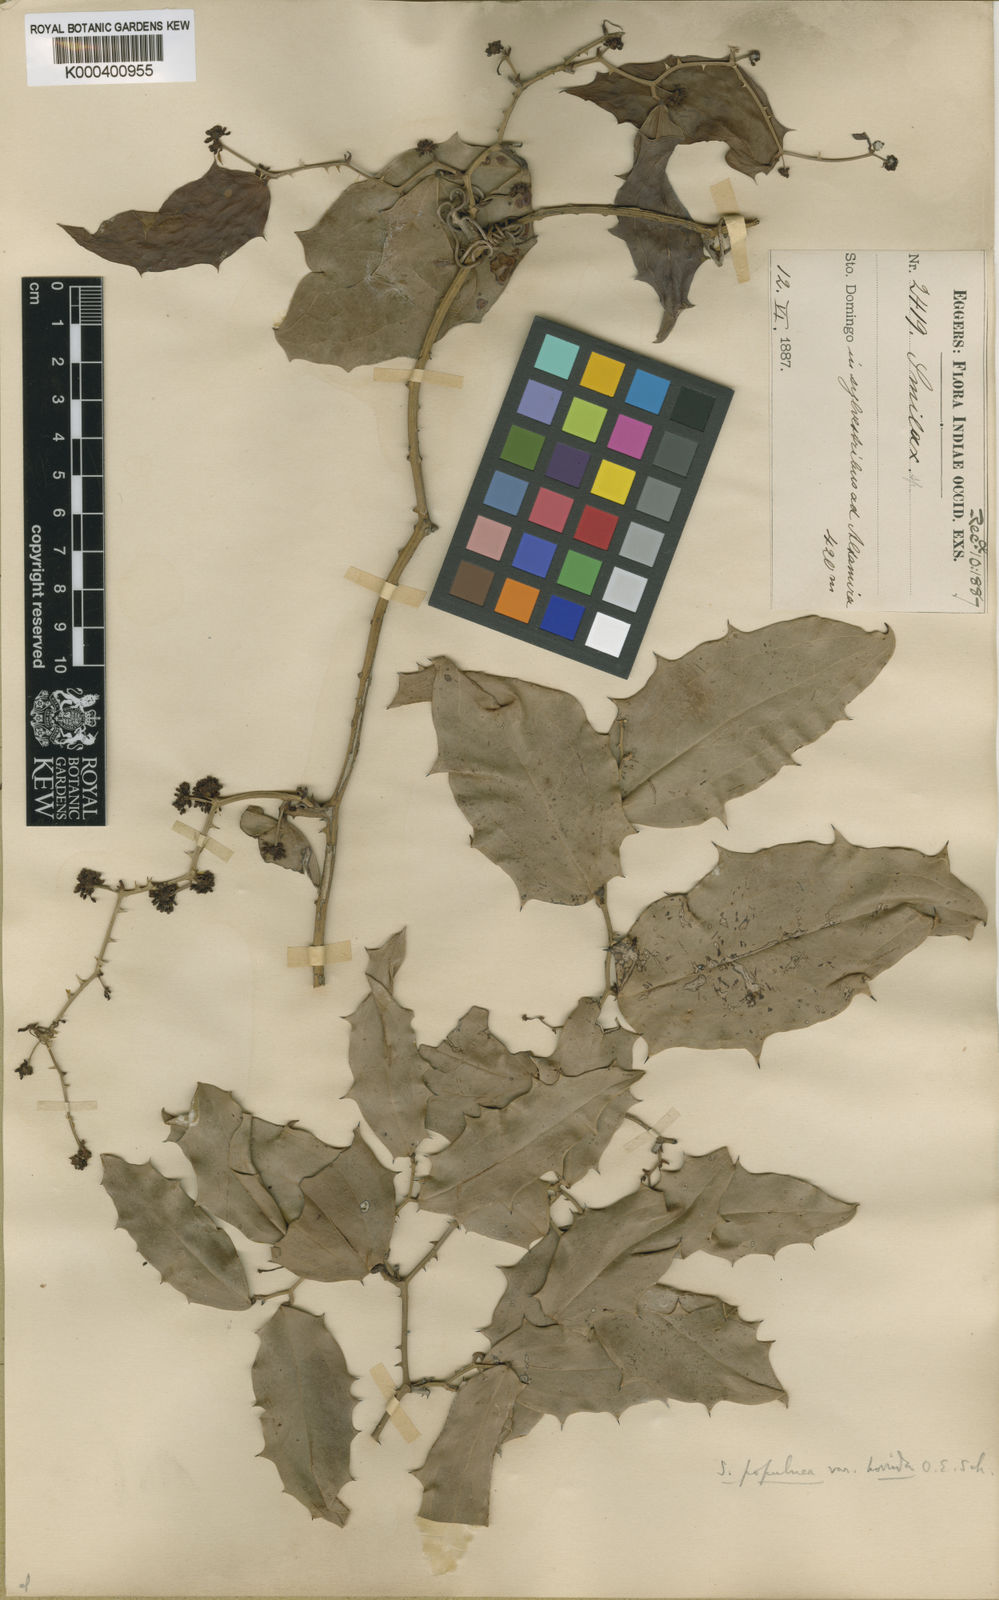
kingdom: Plantae
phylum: Tracheophyta
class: Liliopsida
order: Liliales
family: Smilacaceae
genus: Smilax
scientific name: Smilax populnea
